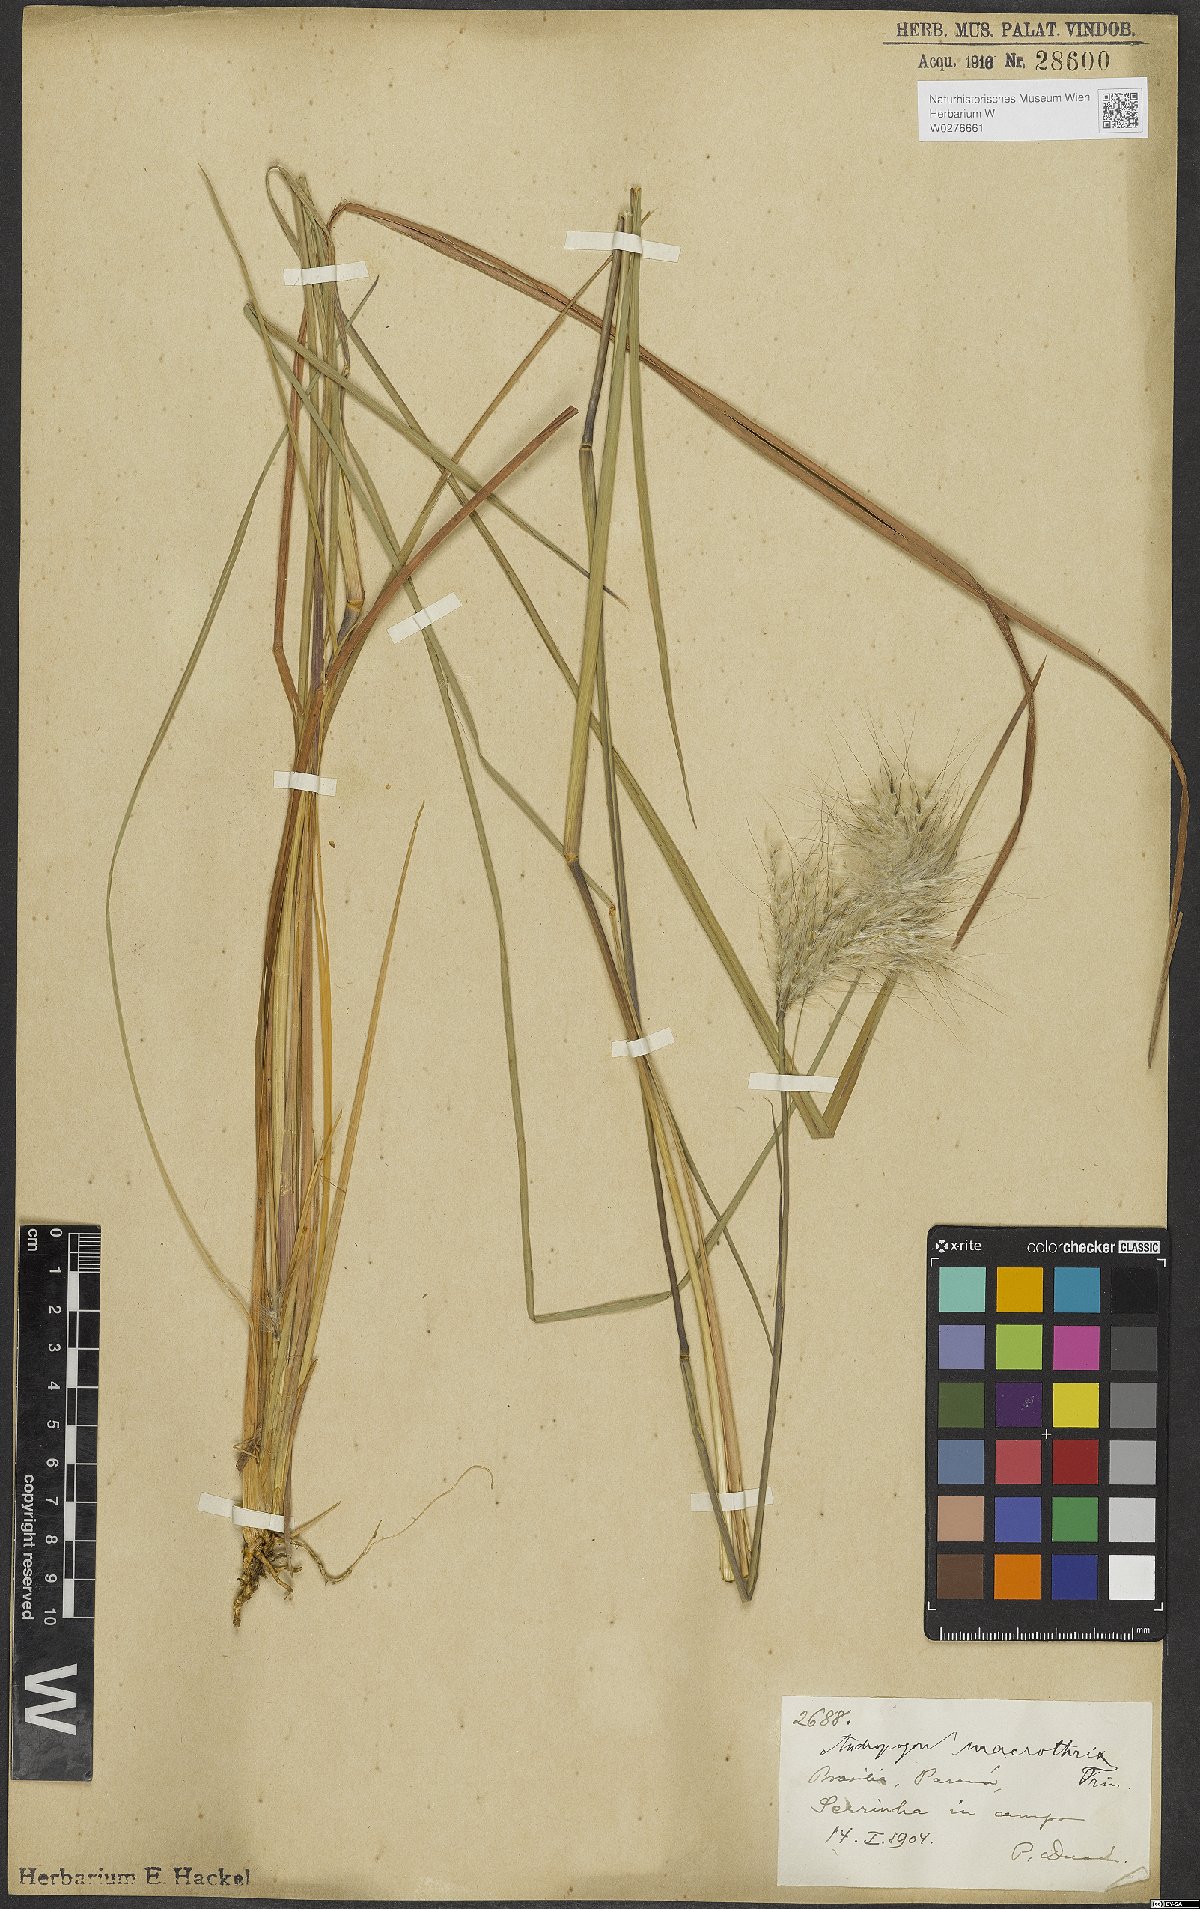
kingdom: Plantae
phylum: Tracheophyta
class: Liliopsida
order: Poales
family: Poaceae
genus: Andropogon
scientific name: Andropogon macrothrix
